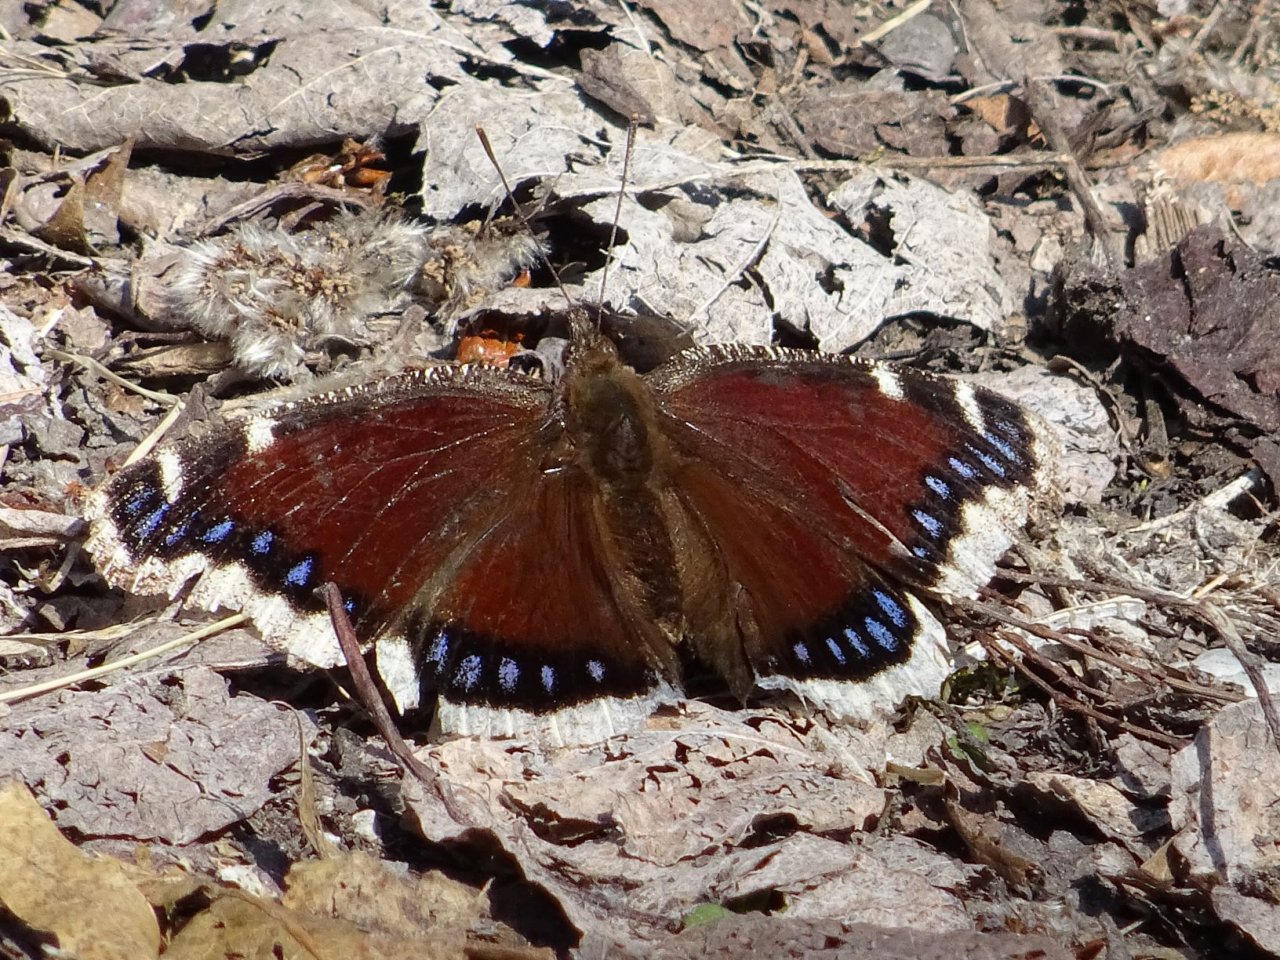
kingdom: Animalia
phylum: Arthropoda
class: Insecta
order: Lepidoptera
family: Nymphalidae
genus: Nymphalis
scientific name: Nymphalis antiopa
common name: Mourning Cloak
